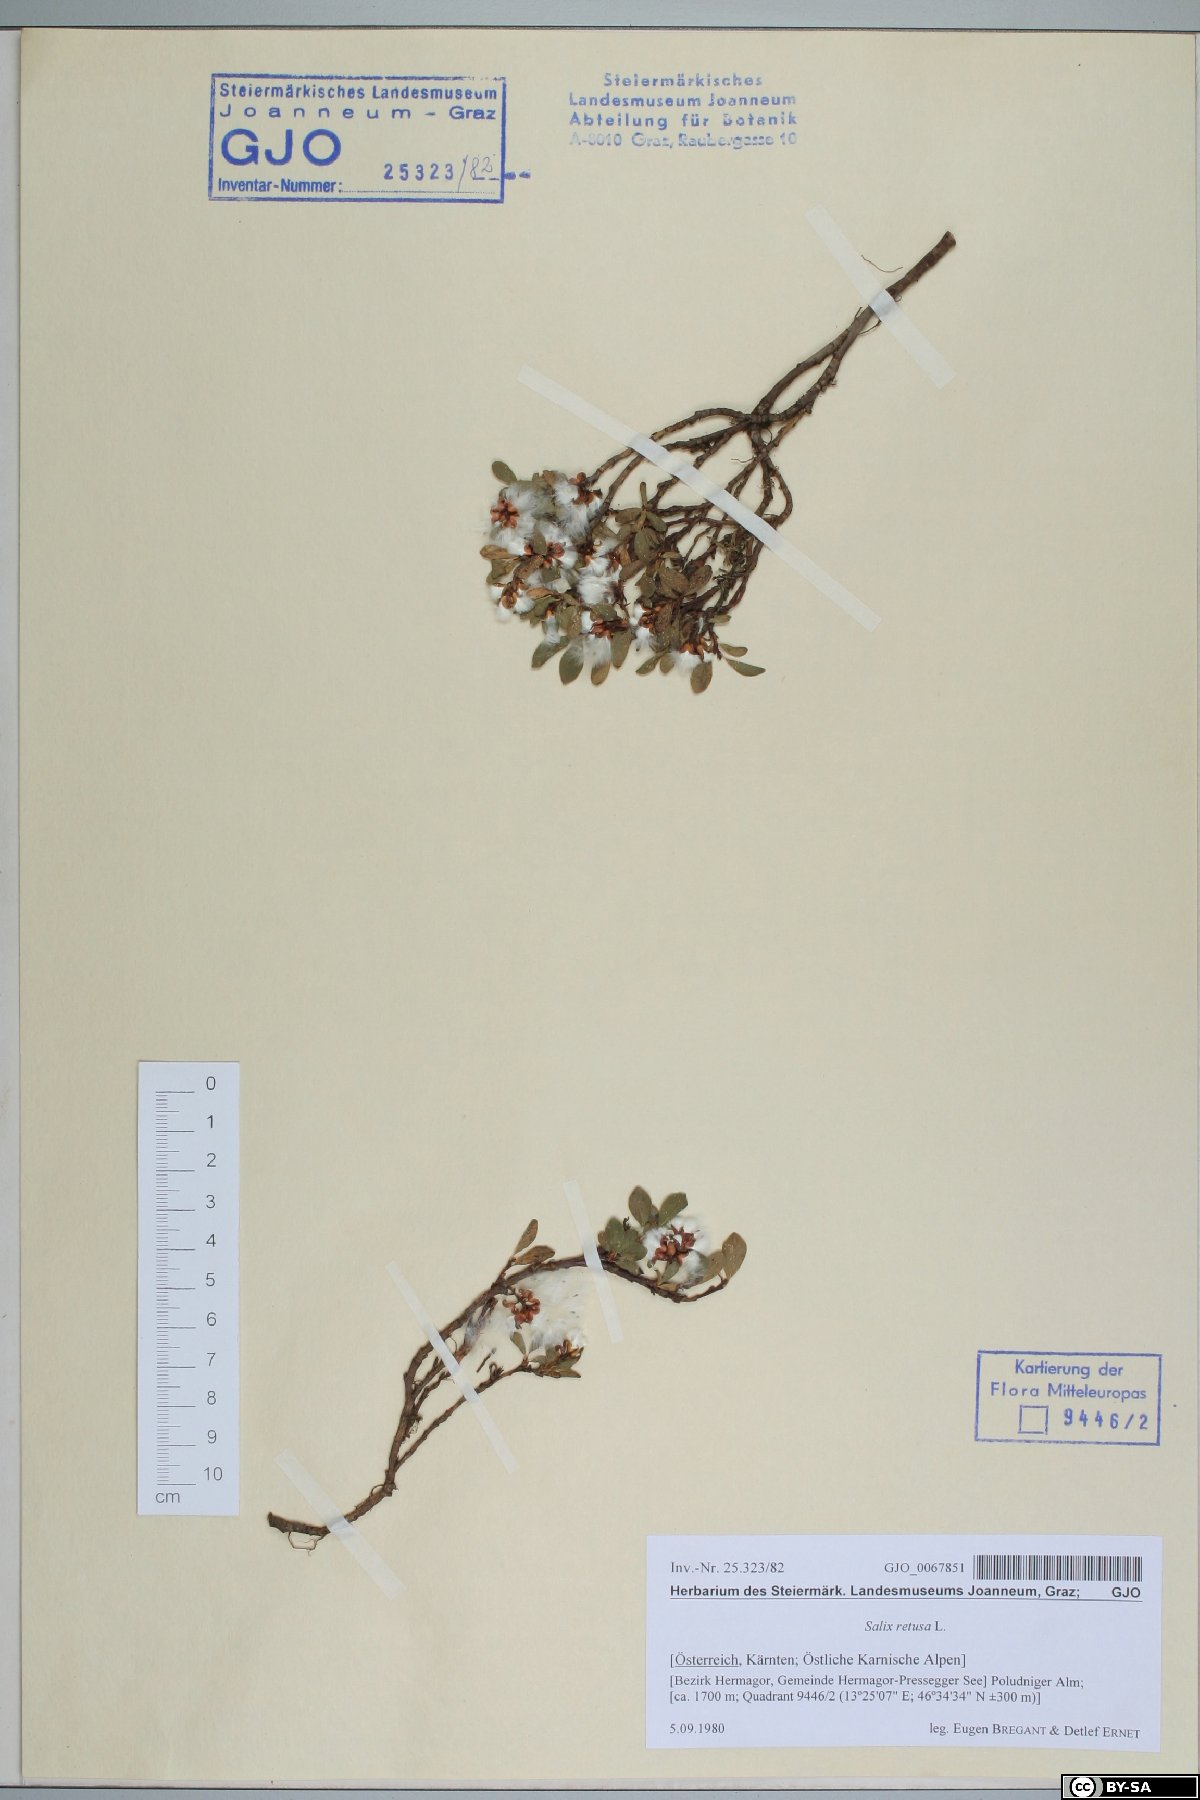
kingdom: Plantae
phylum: Tracheophyta
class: Magnoliopsida
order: Malpighiales
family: Salicaceae
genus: Salix
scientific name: Salix retusa
